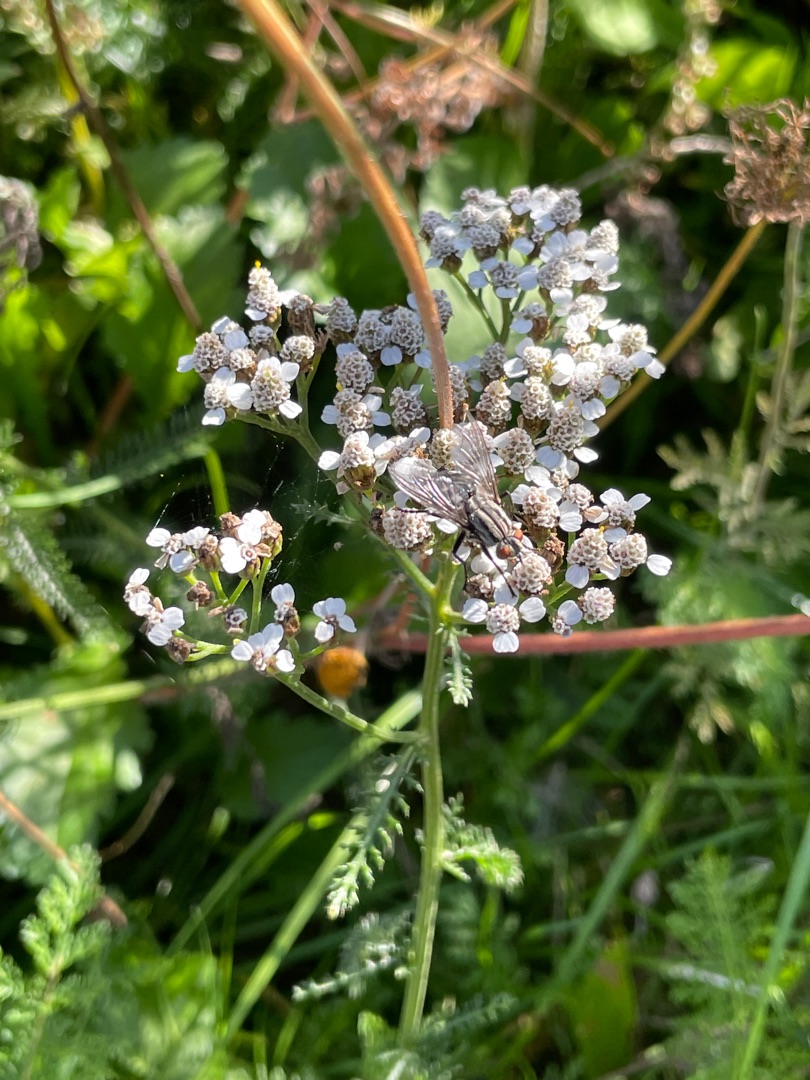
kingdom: Animalia
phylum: Arthropoda
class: Insecta
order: Diptera
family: Sarcophagidae
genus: Sarcophaga
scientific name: Sarcophaga
